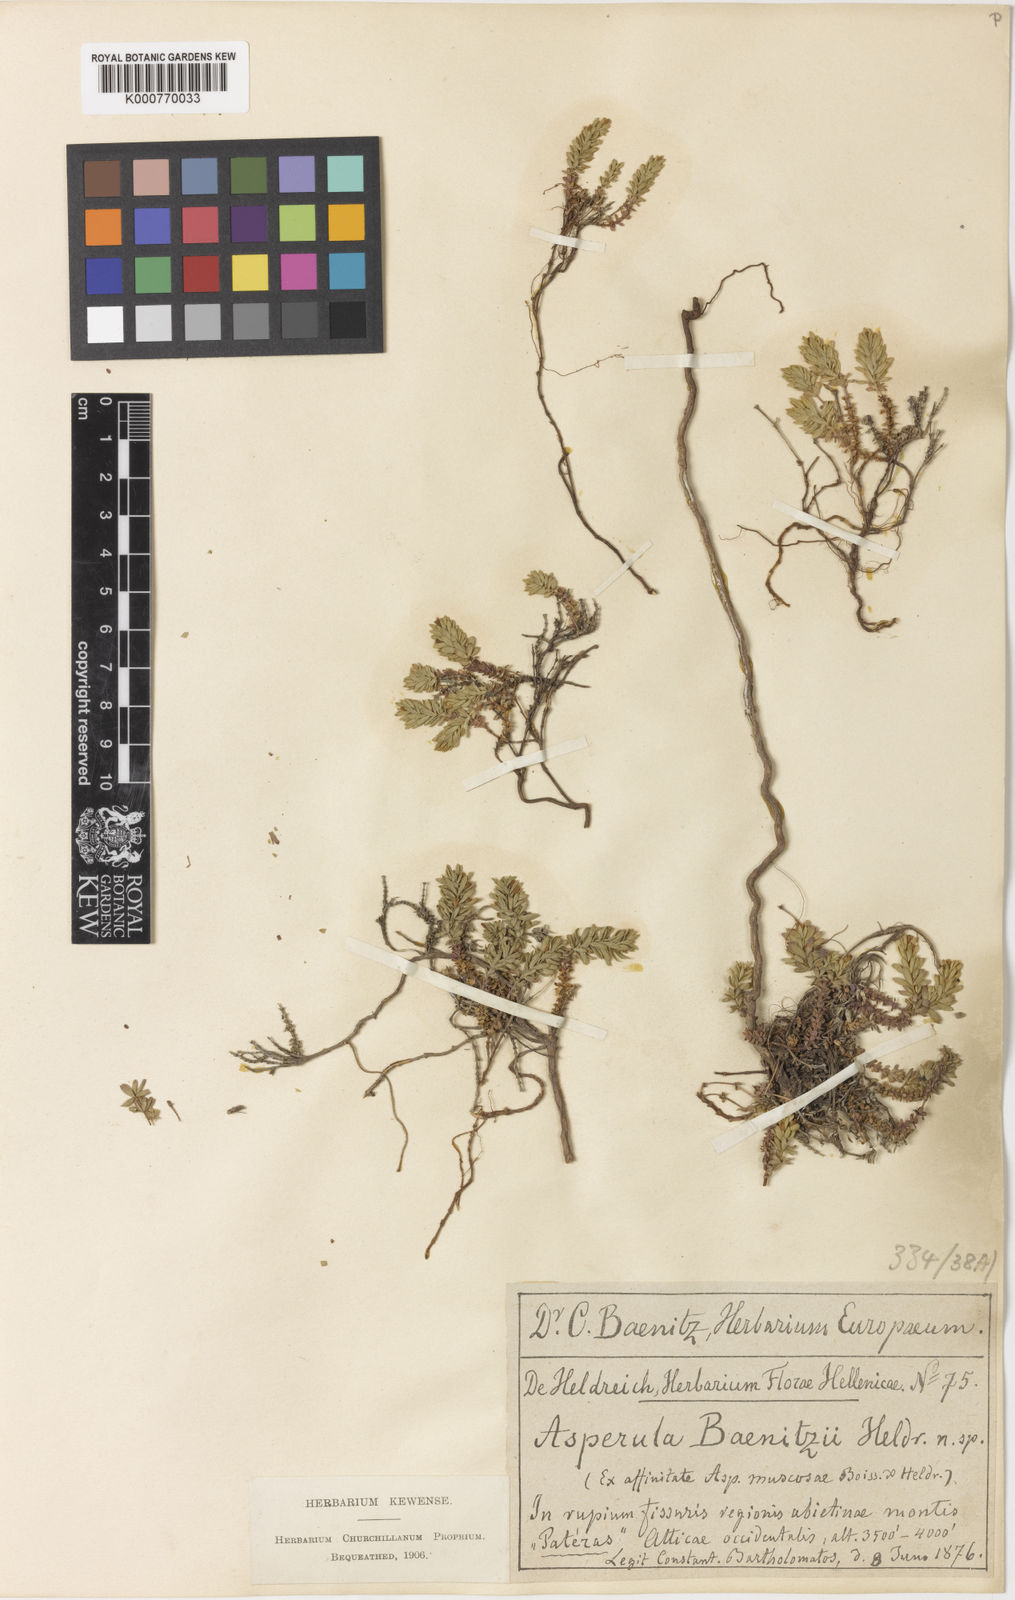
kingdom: Plantae
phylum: Tracheophyta
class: Magnoliopsida
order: Gentianales
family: Rubiaceae
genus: Thliphthisa
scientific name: Thliphthisa baenitzii
